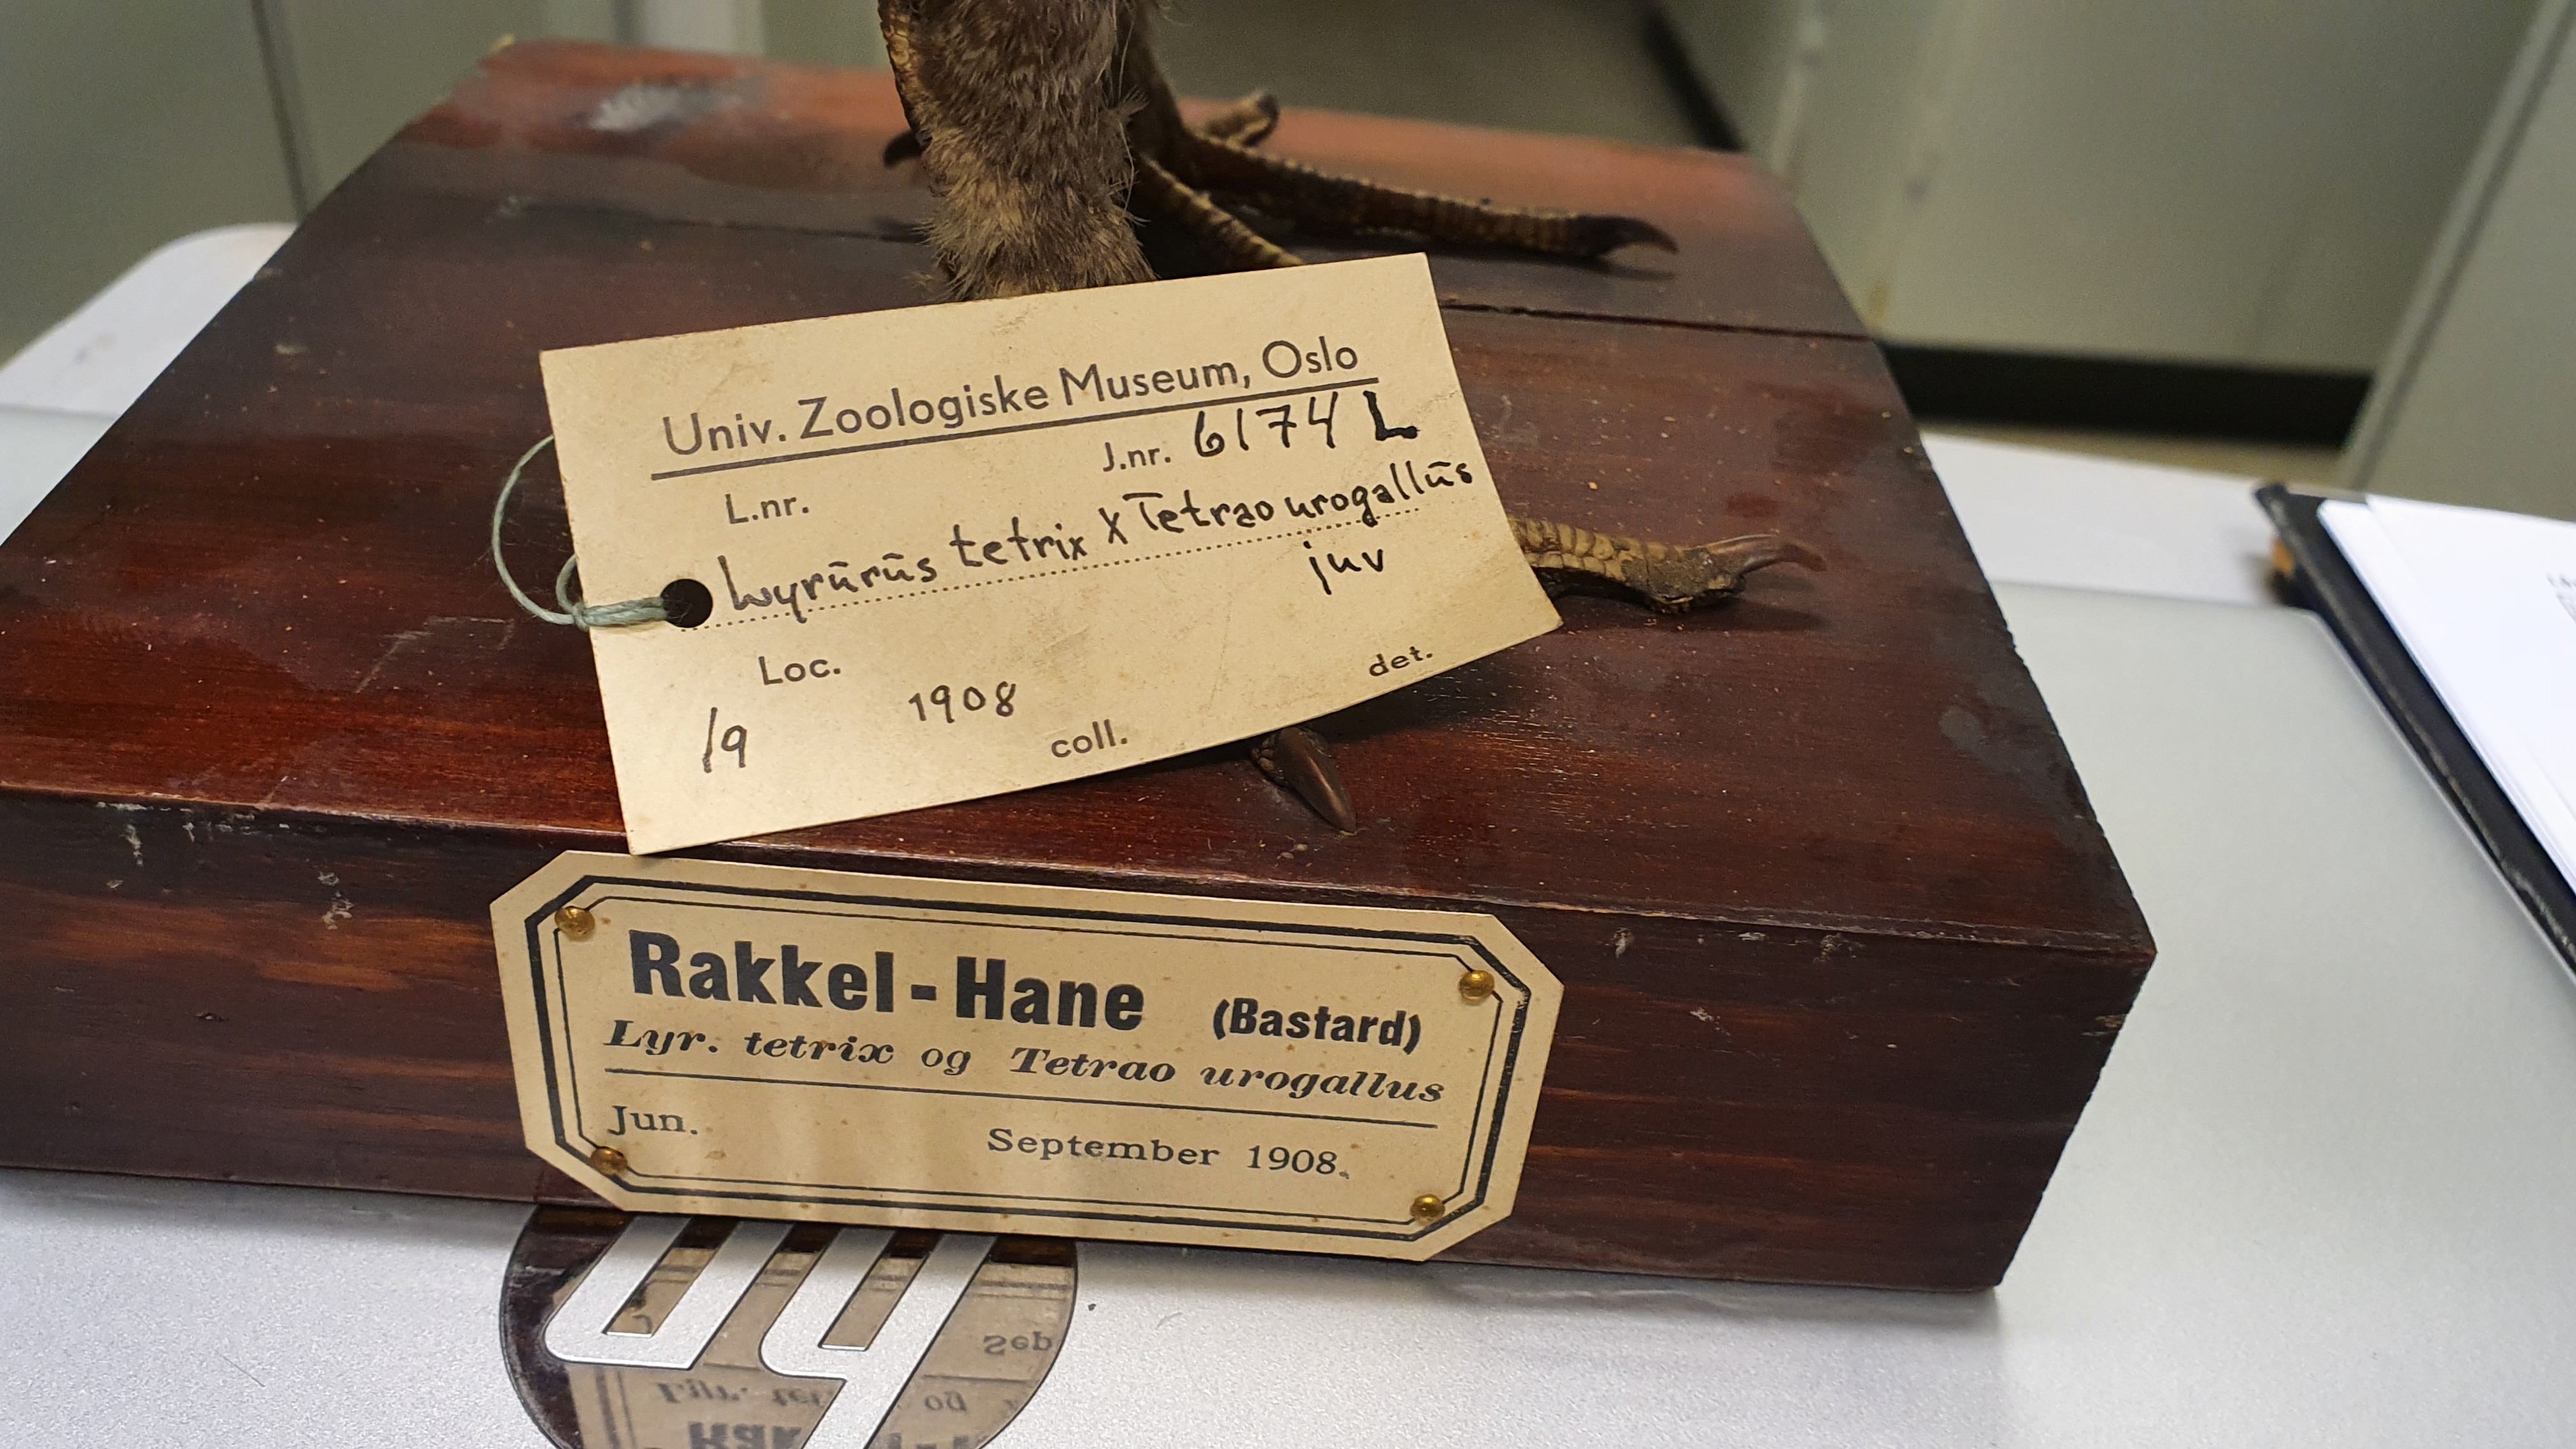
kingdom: Animalia
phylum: Chordata
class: Aves
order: Galliformes
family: Phasianidae
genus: Lyrurus
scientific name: Lyrurus
